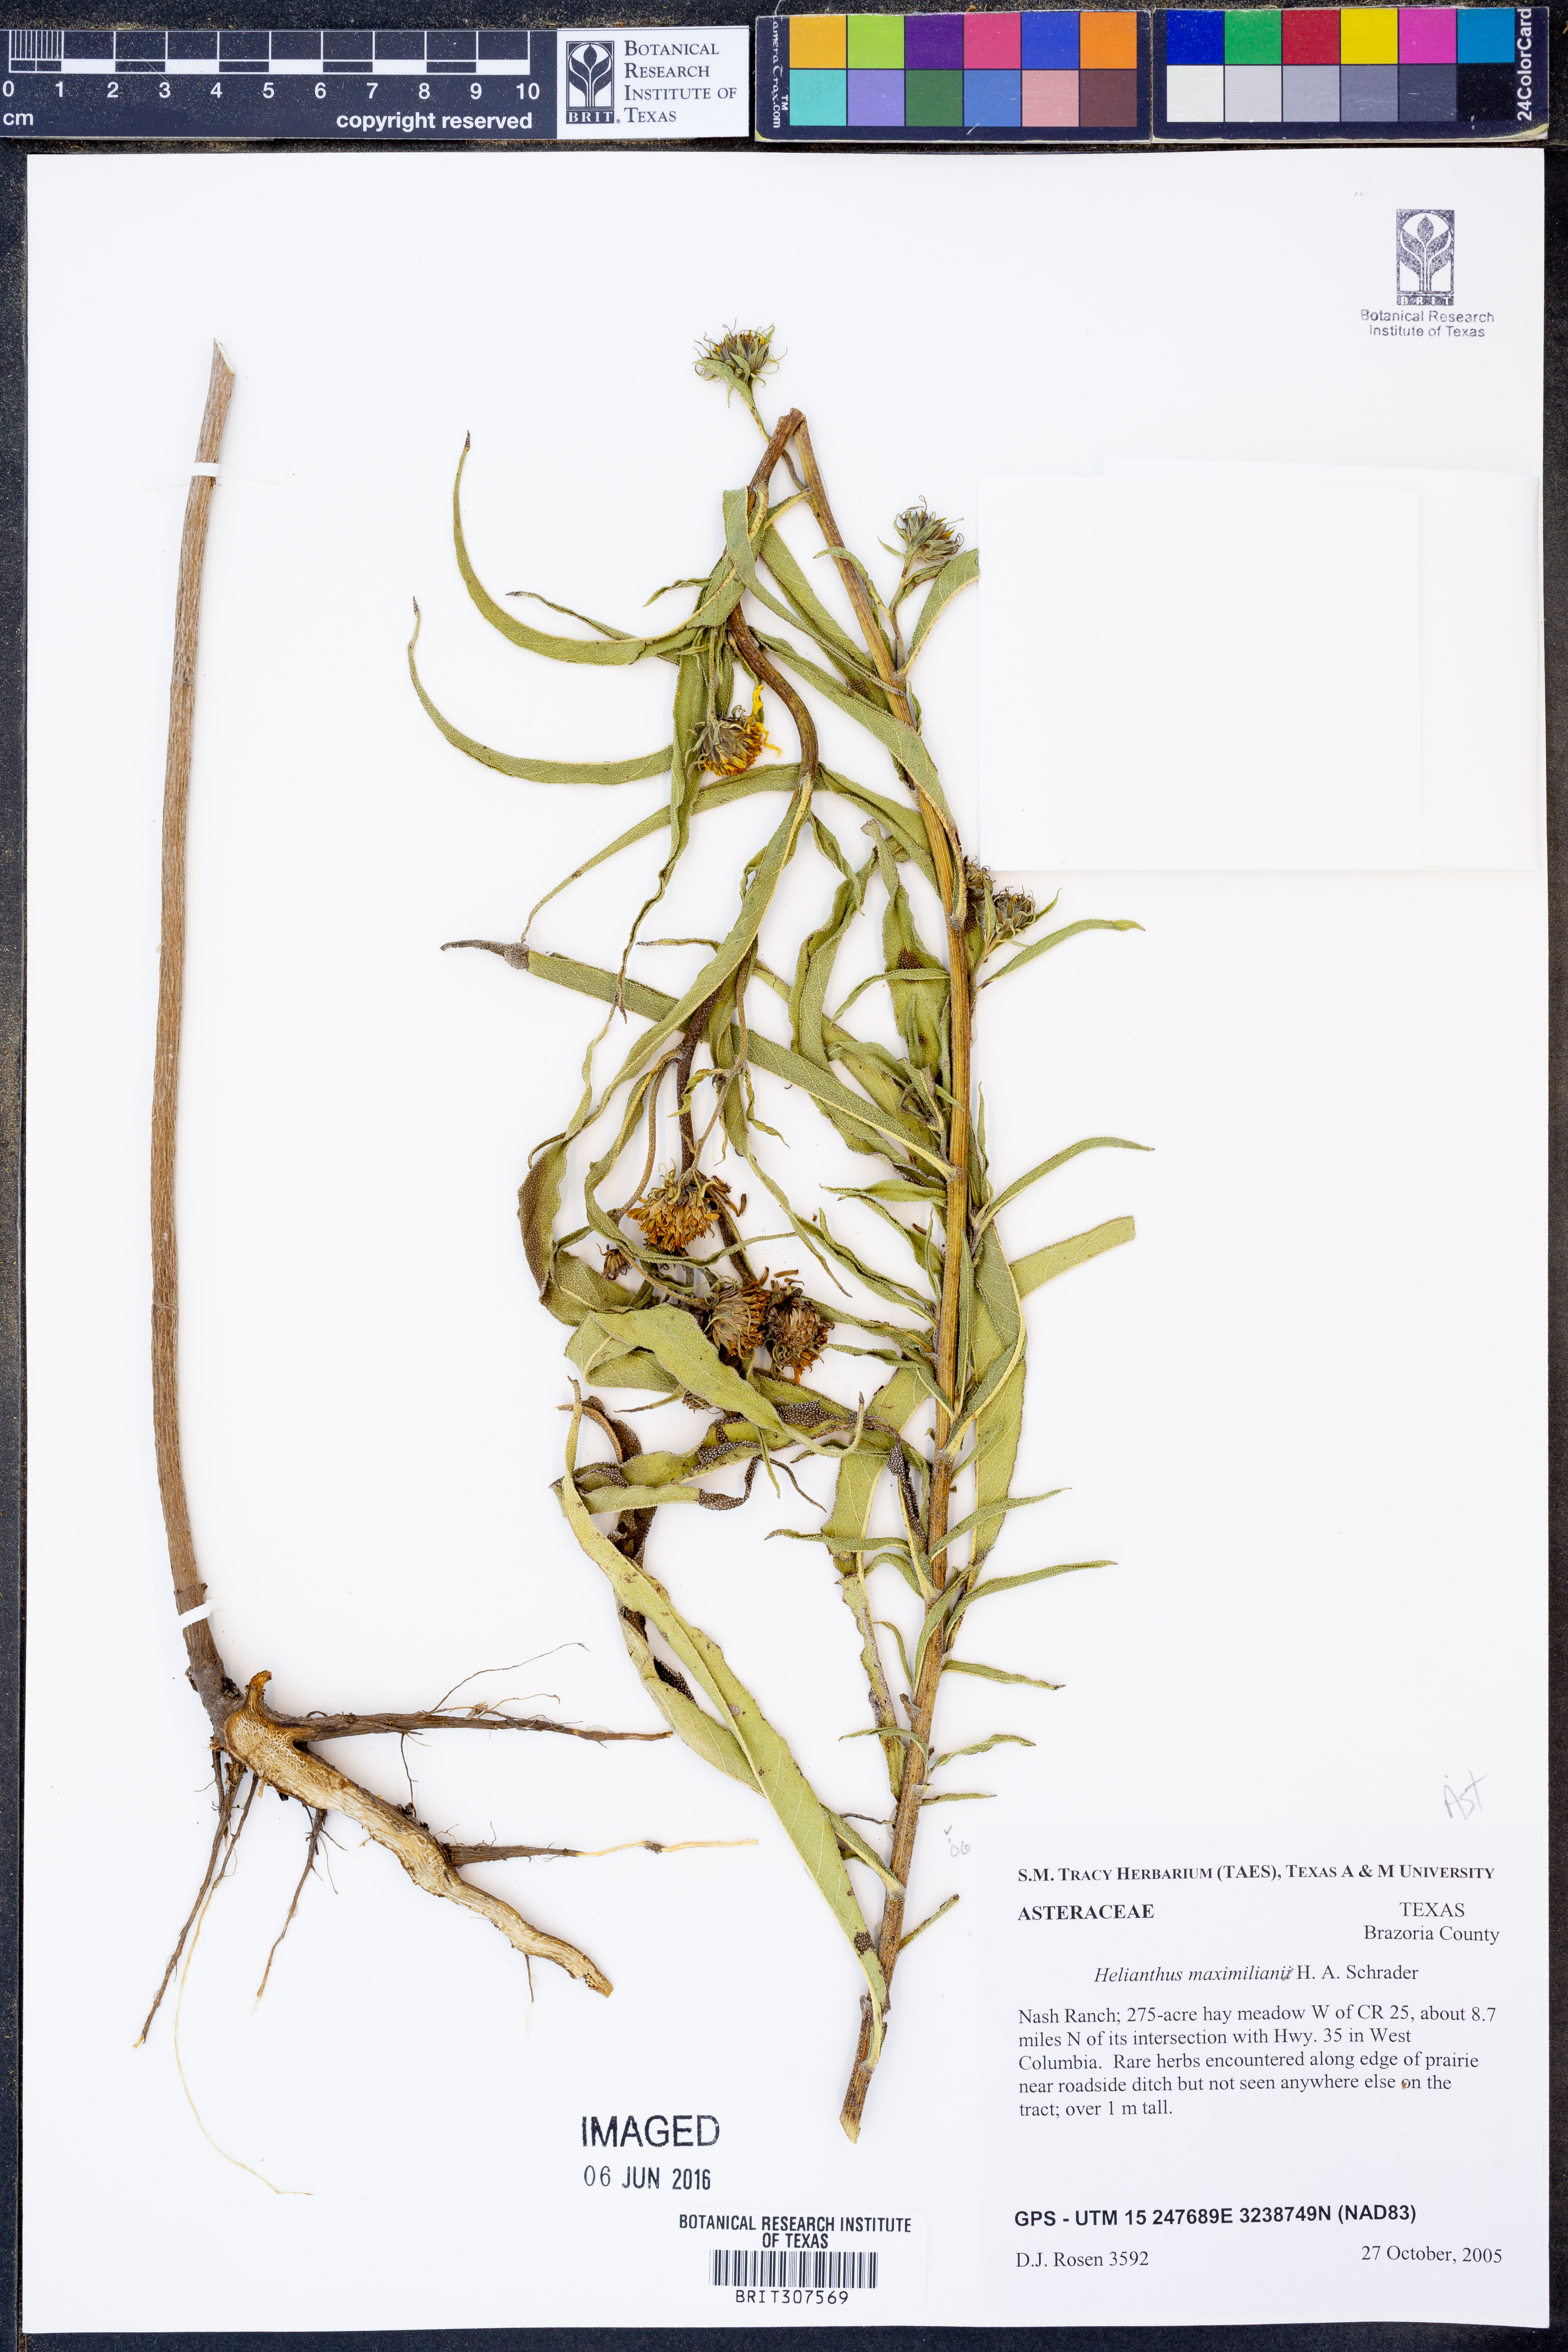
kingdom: Plantae
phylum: Tracheophyta
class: Magnoliopsida
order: Asterales
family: Asteraceae
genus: Helianthus
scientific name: Helianthus maximiliani
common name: Maximilian's sunflower
